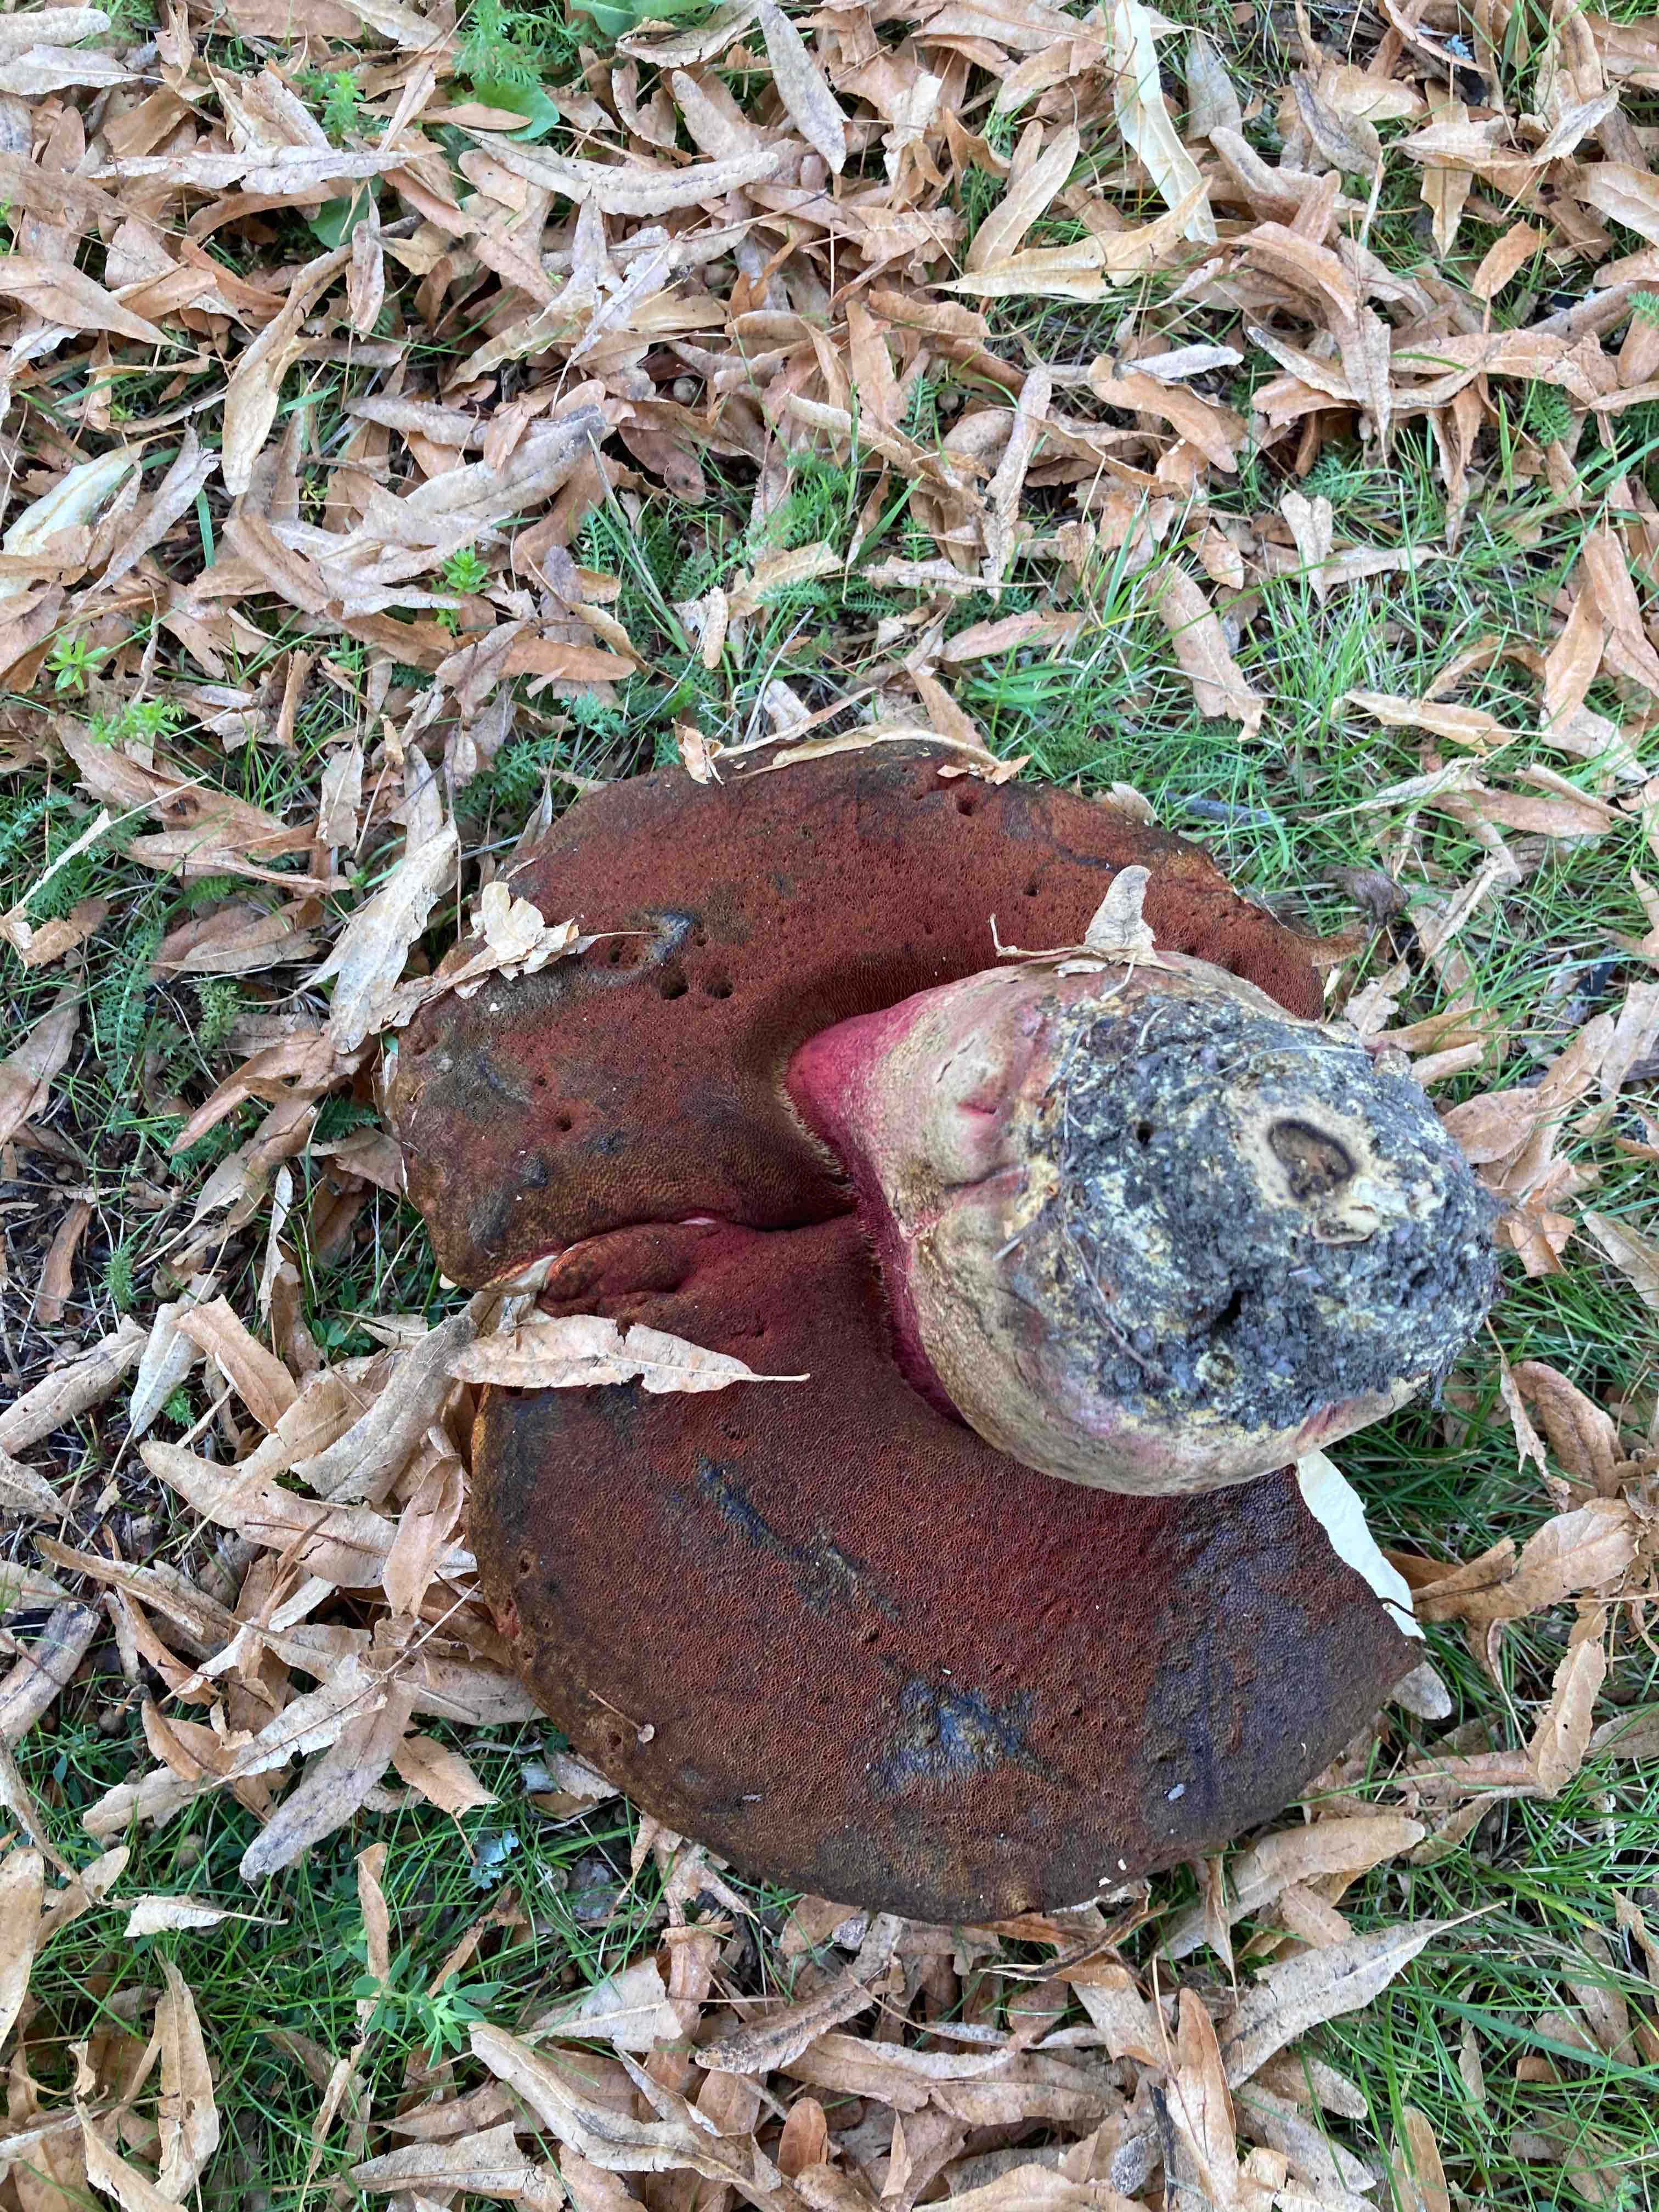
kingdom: Fungi
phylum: Basidiomycota
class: Agaricomycetes
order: Boletales
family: Boletaceae
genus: Suillellus
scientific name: Suillellus luridus
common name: netstokket indigorørhat
